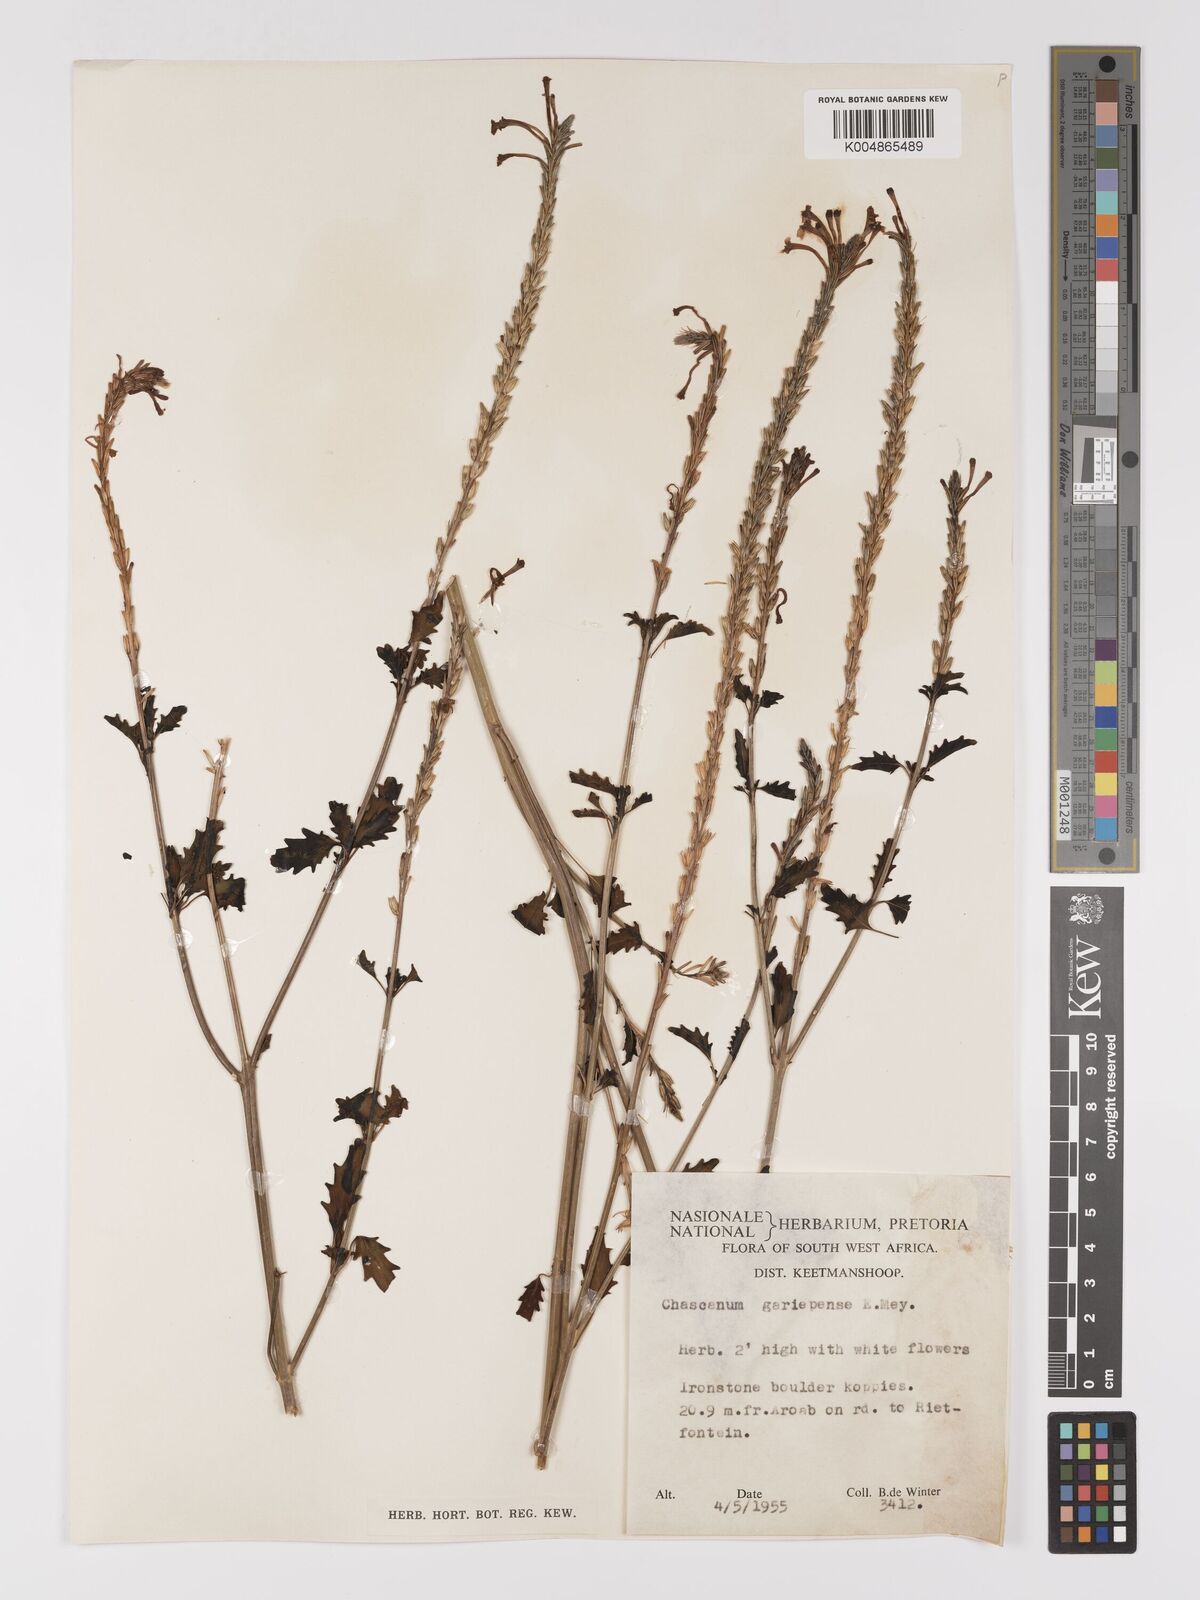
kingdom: Plantae
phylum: Tracheophyta
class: Magnoliopsida
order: Lamiales
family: Verbenaceae
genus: Chascanum
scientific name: Chascanum garipense
